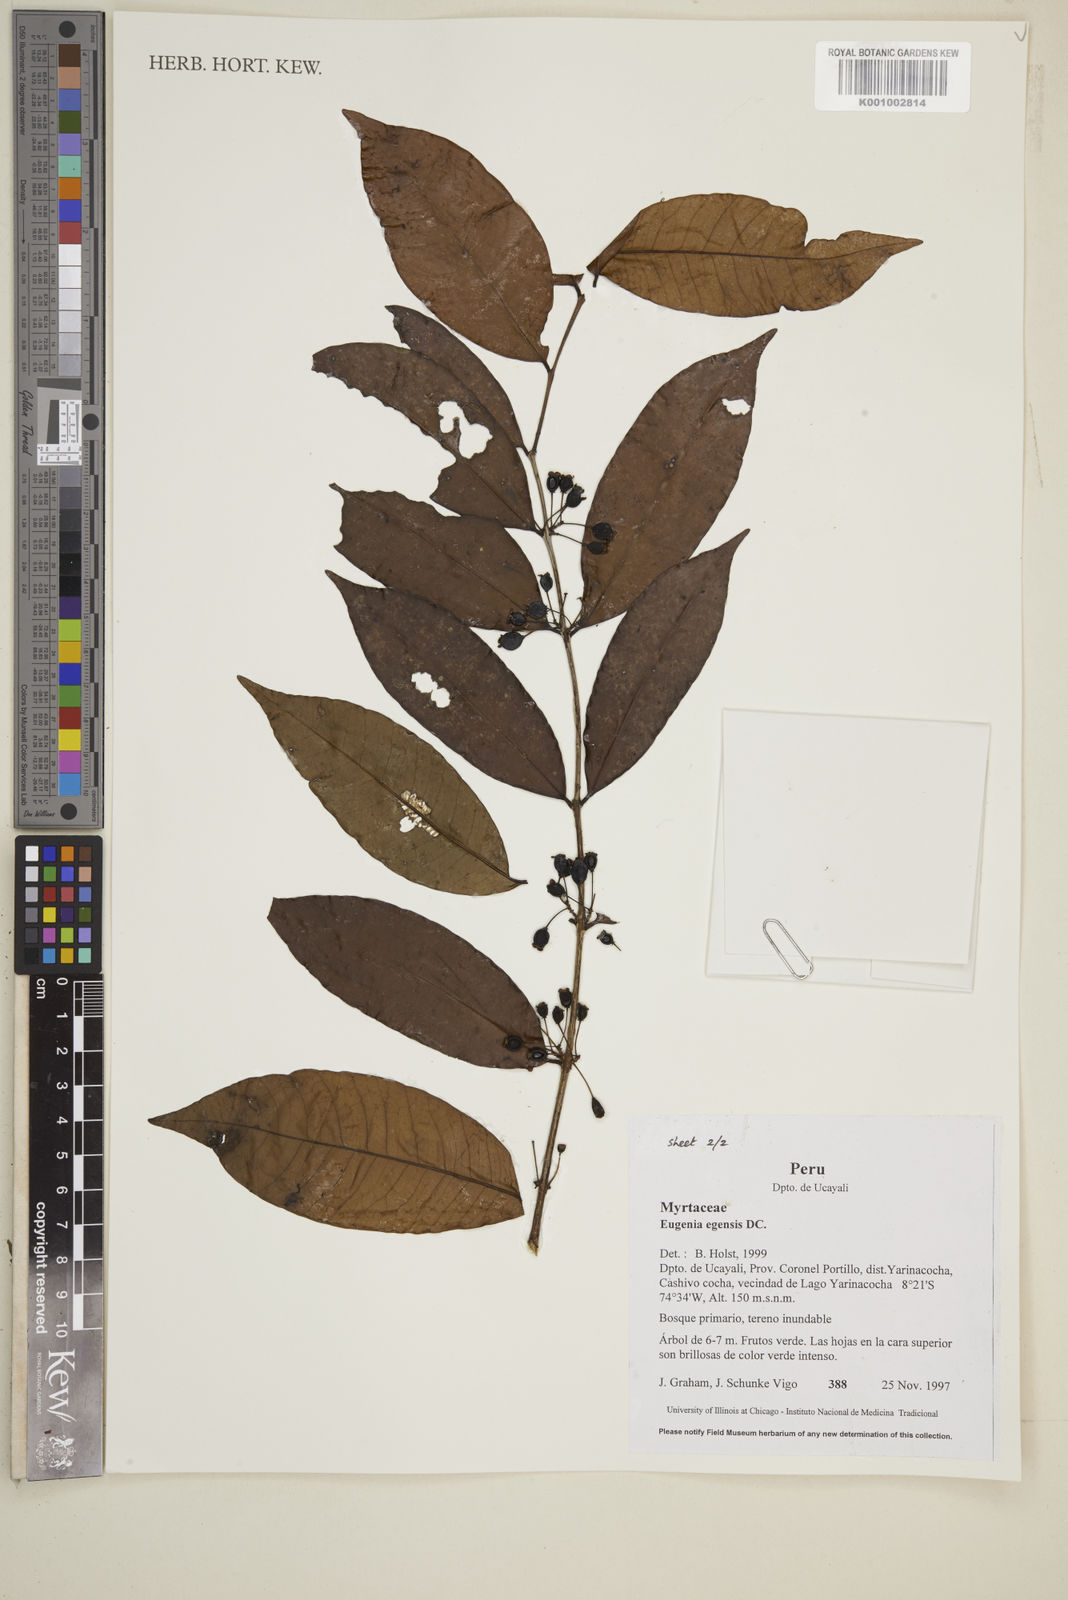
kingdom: Plantae
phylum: Tracheophyta
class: Magnoliopsida
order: Myrtales
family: Myrtaceae
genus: Eugenia
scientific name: Eugenia egensis
